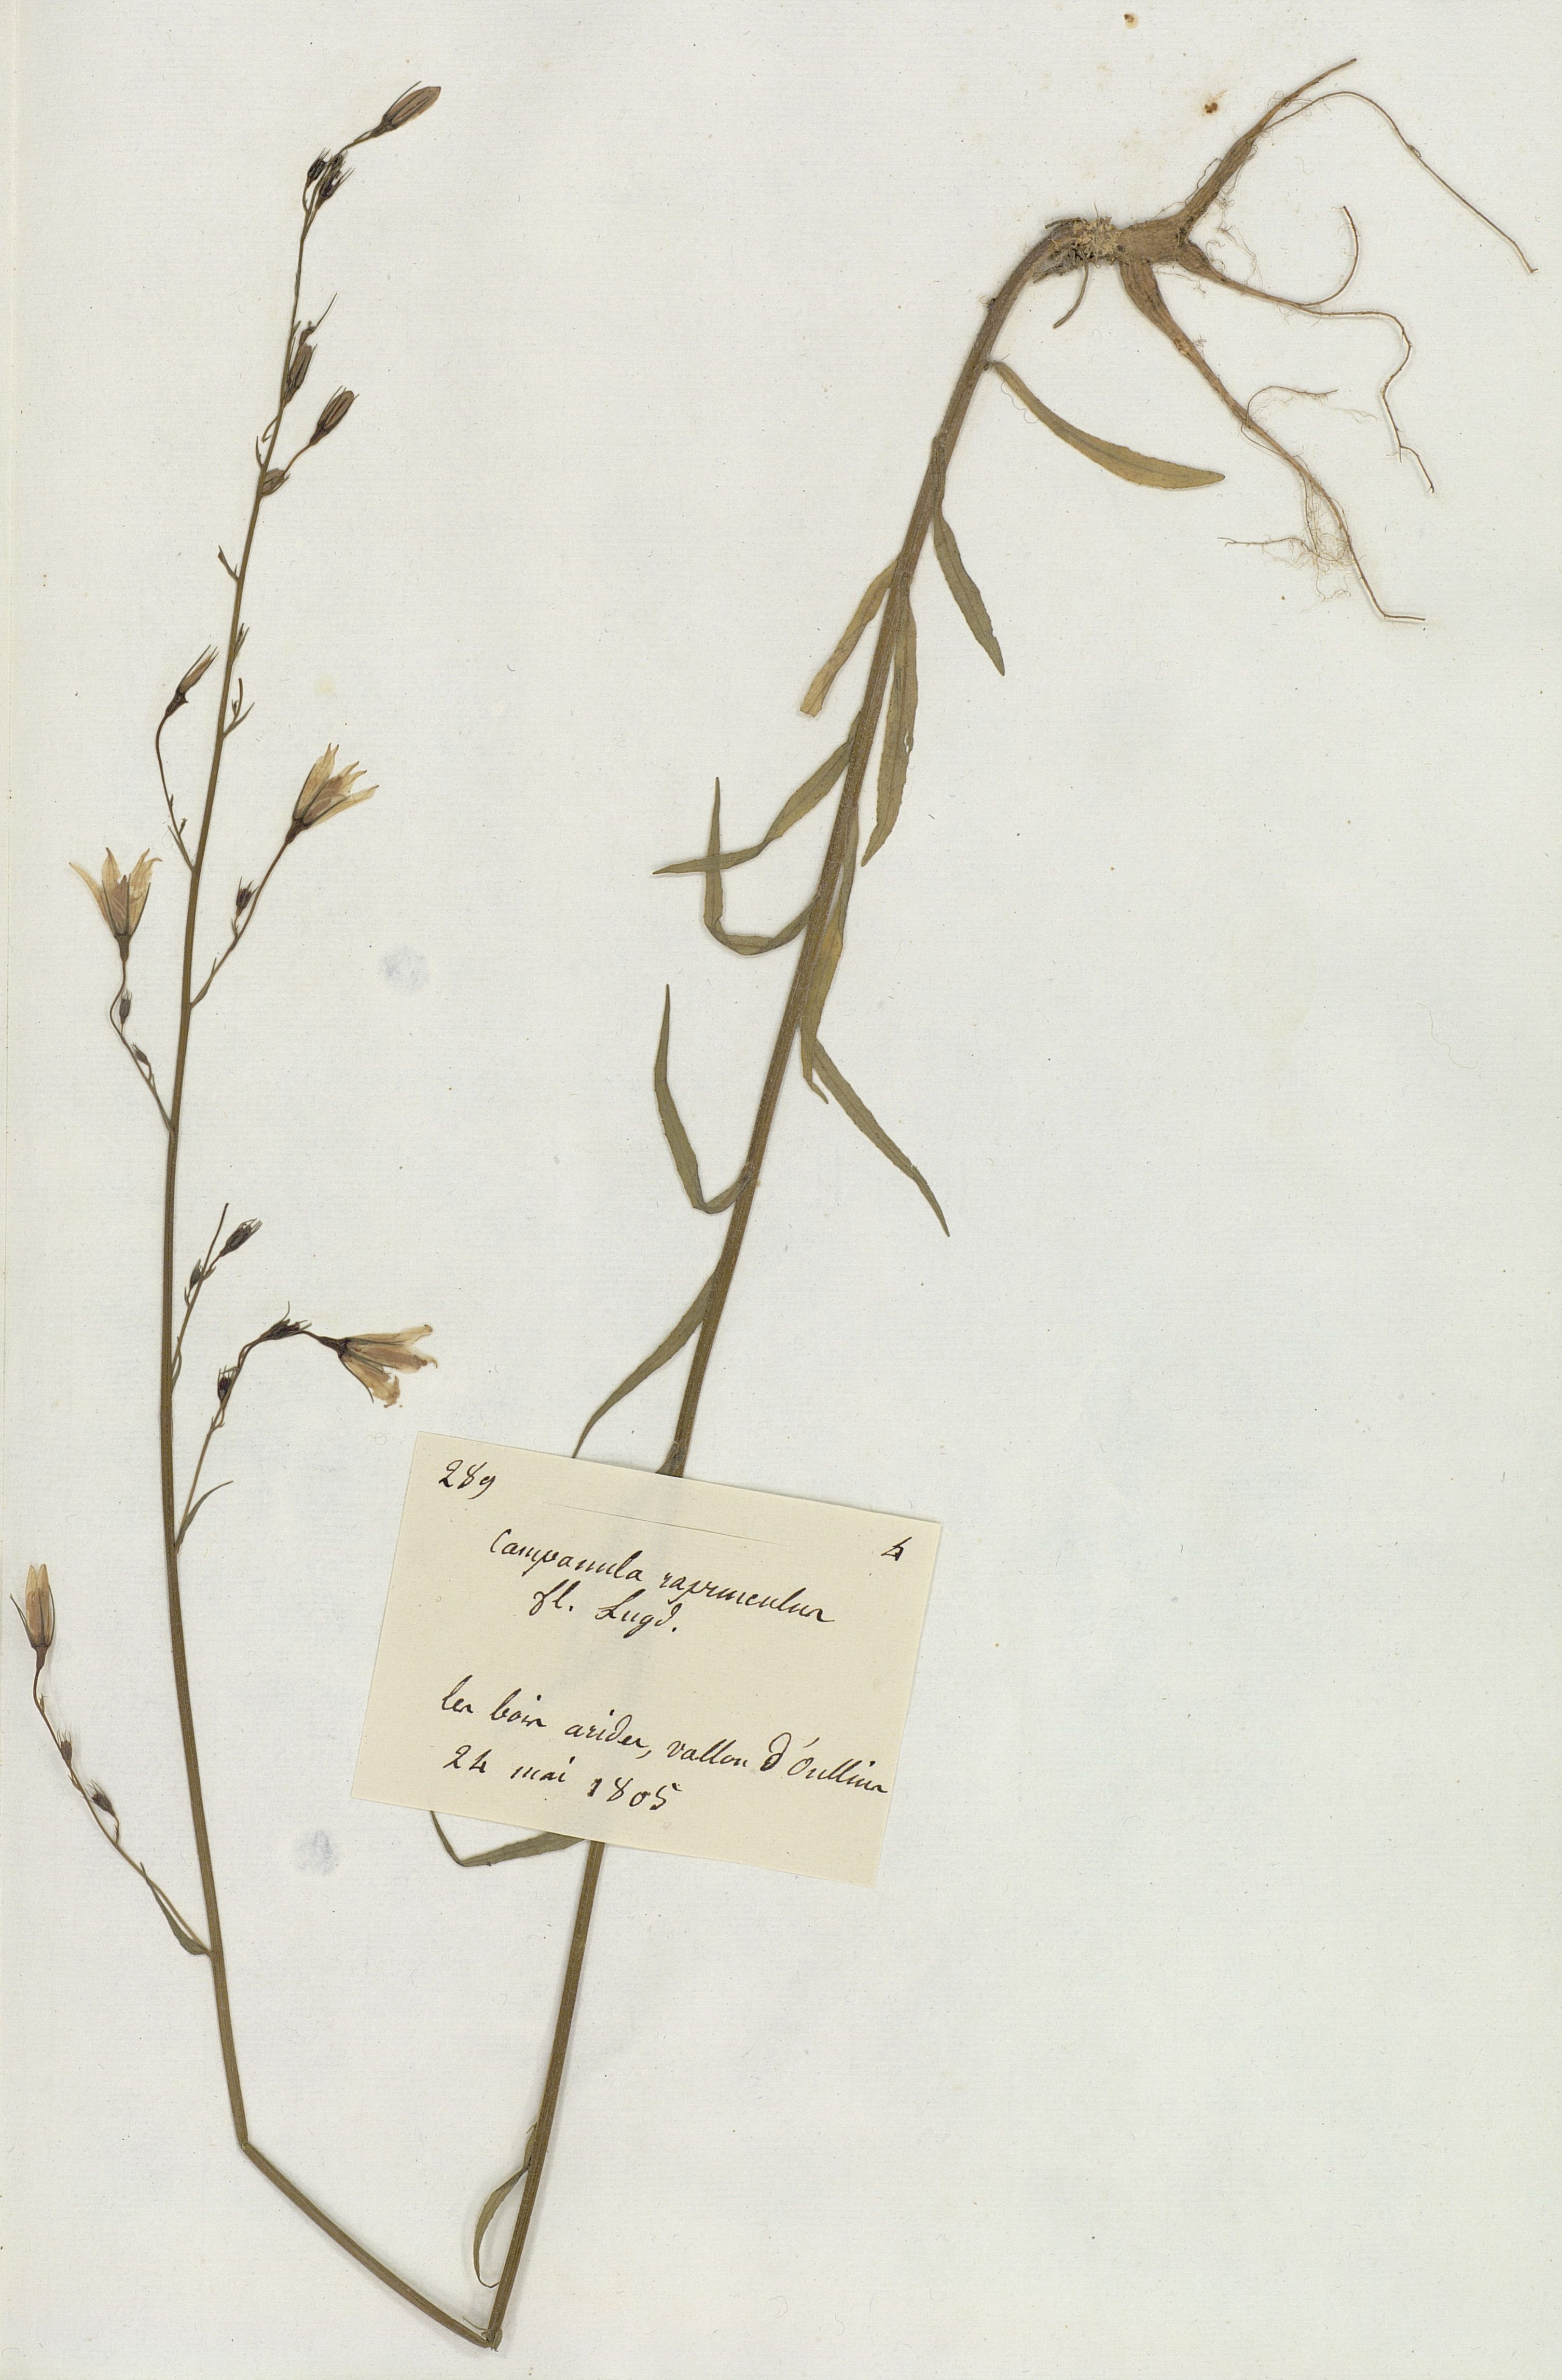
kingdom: Plantae
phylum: Tracheophyta
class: Magnoliopsida
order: Asterales
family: Campanulaceae
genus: Campanula
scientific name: Campanula rapunculus
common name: Rampion bellflower
